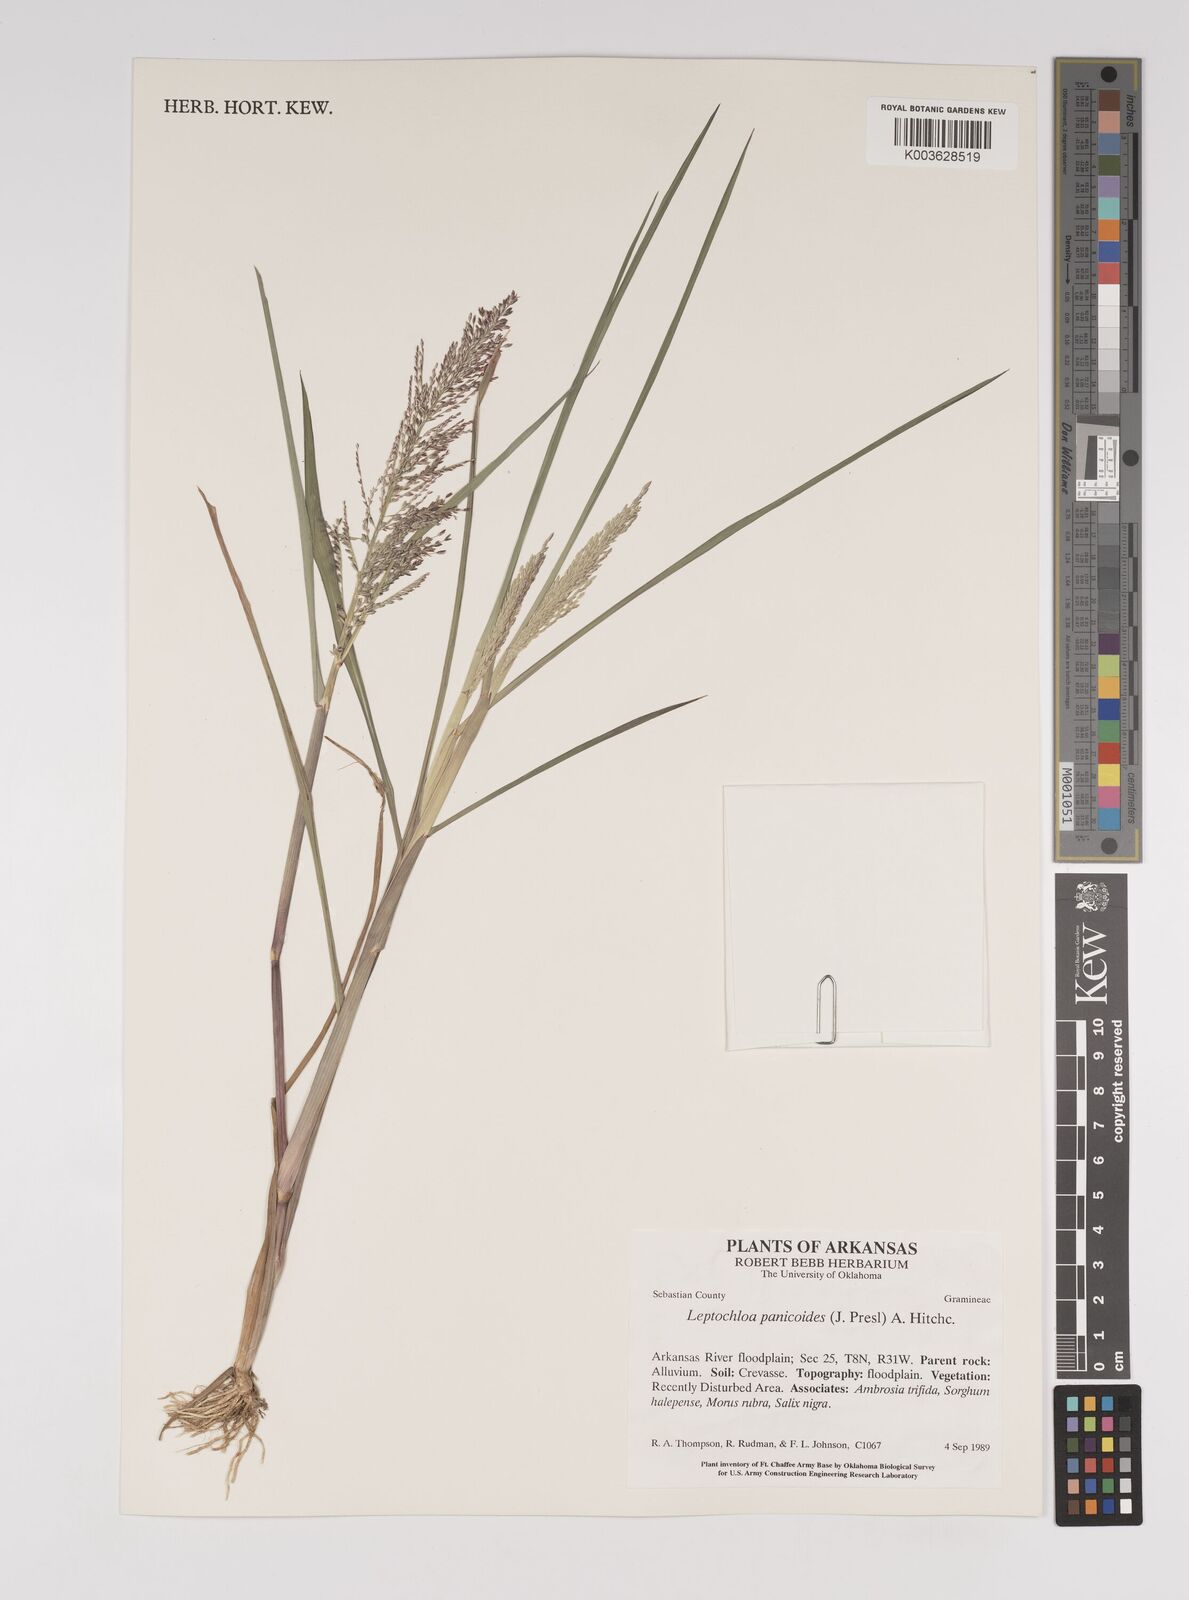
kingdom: Plantae
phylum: Tracheophyta
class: Liliopsida
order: Poales
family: Poaceae
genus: Leptochloa
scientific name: Leptochloa panicoides
